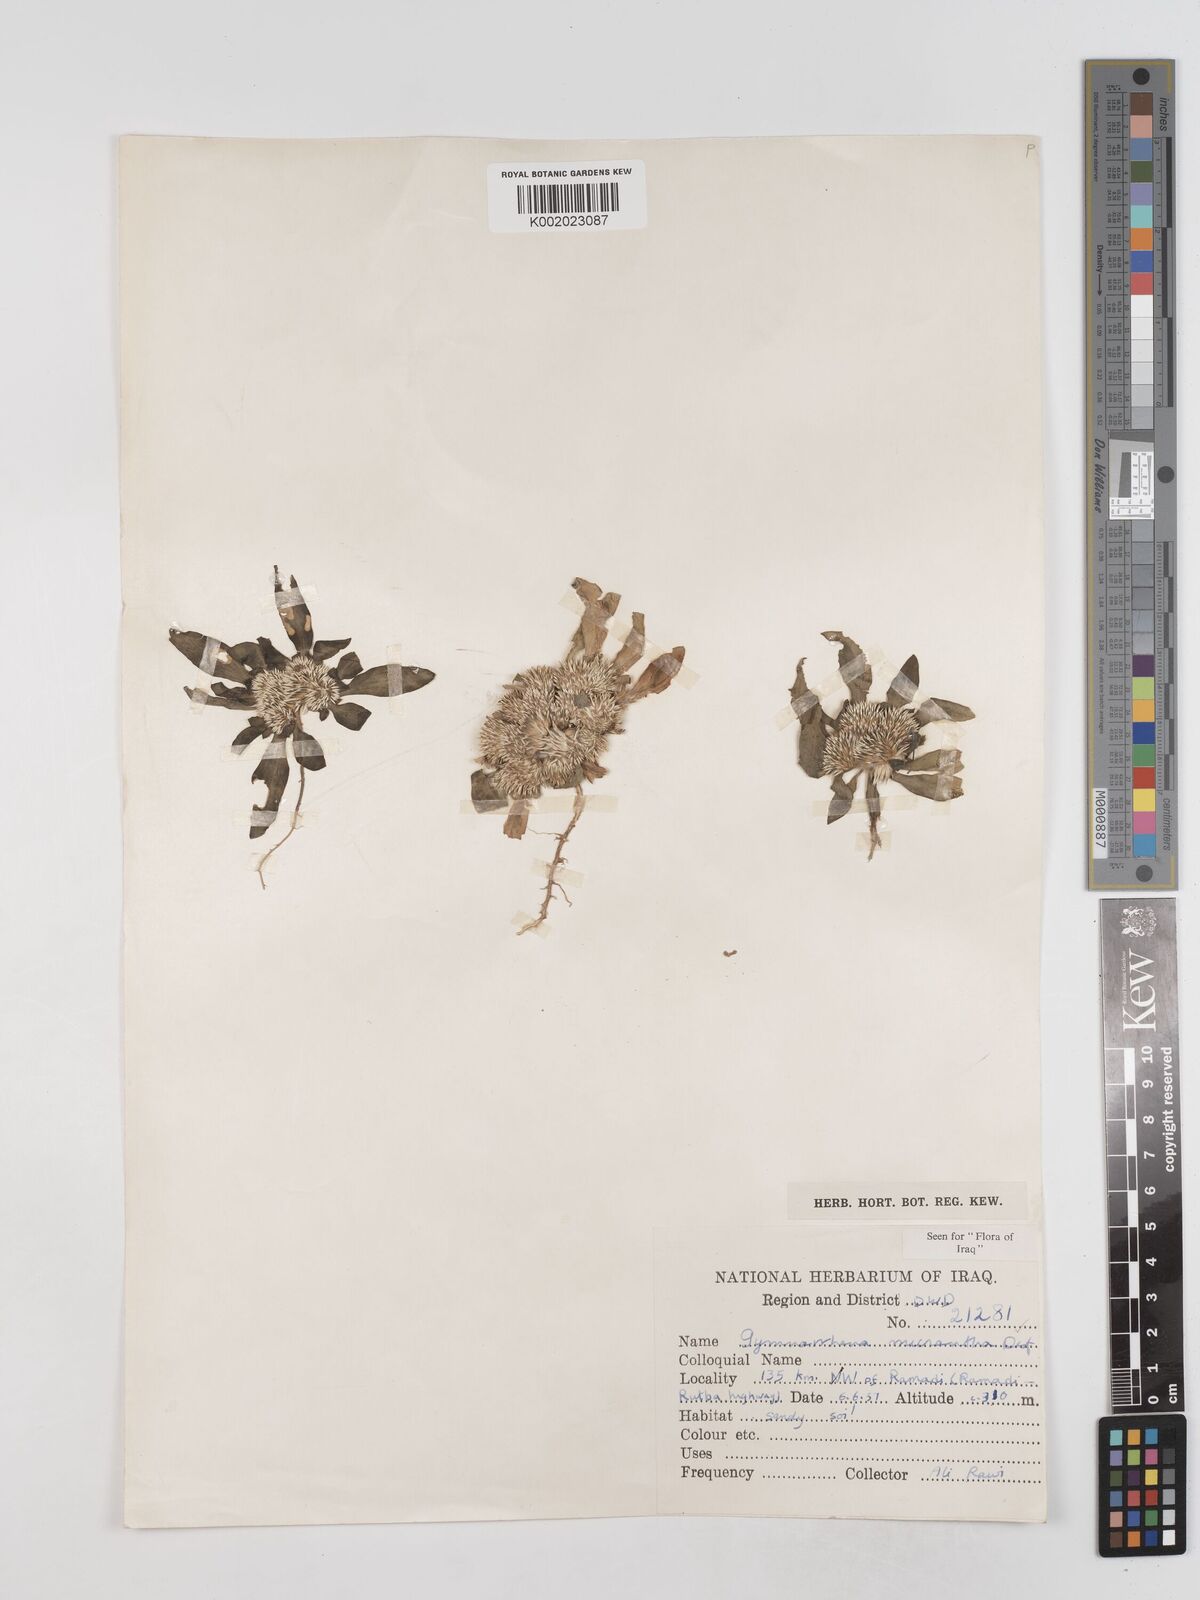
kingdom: Plantae
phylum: Tracheophyta
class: Magnoliopsida
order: Asterales
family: Asteraceae
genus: Gymnarrhena
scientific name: Gymnarrhena micrantha
